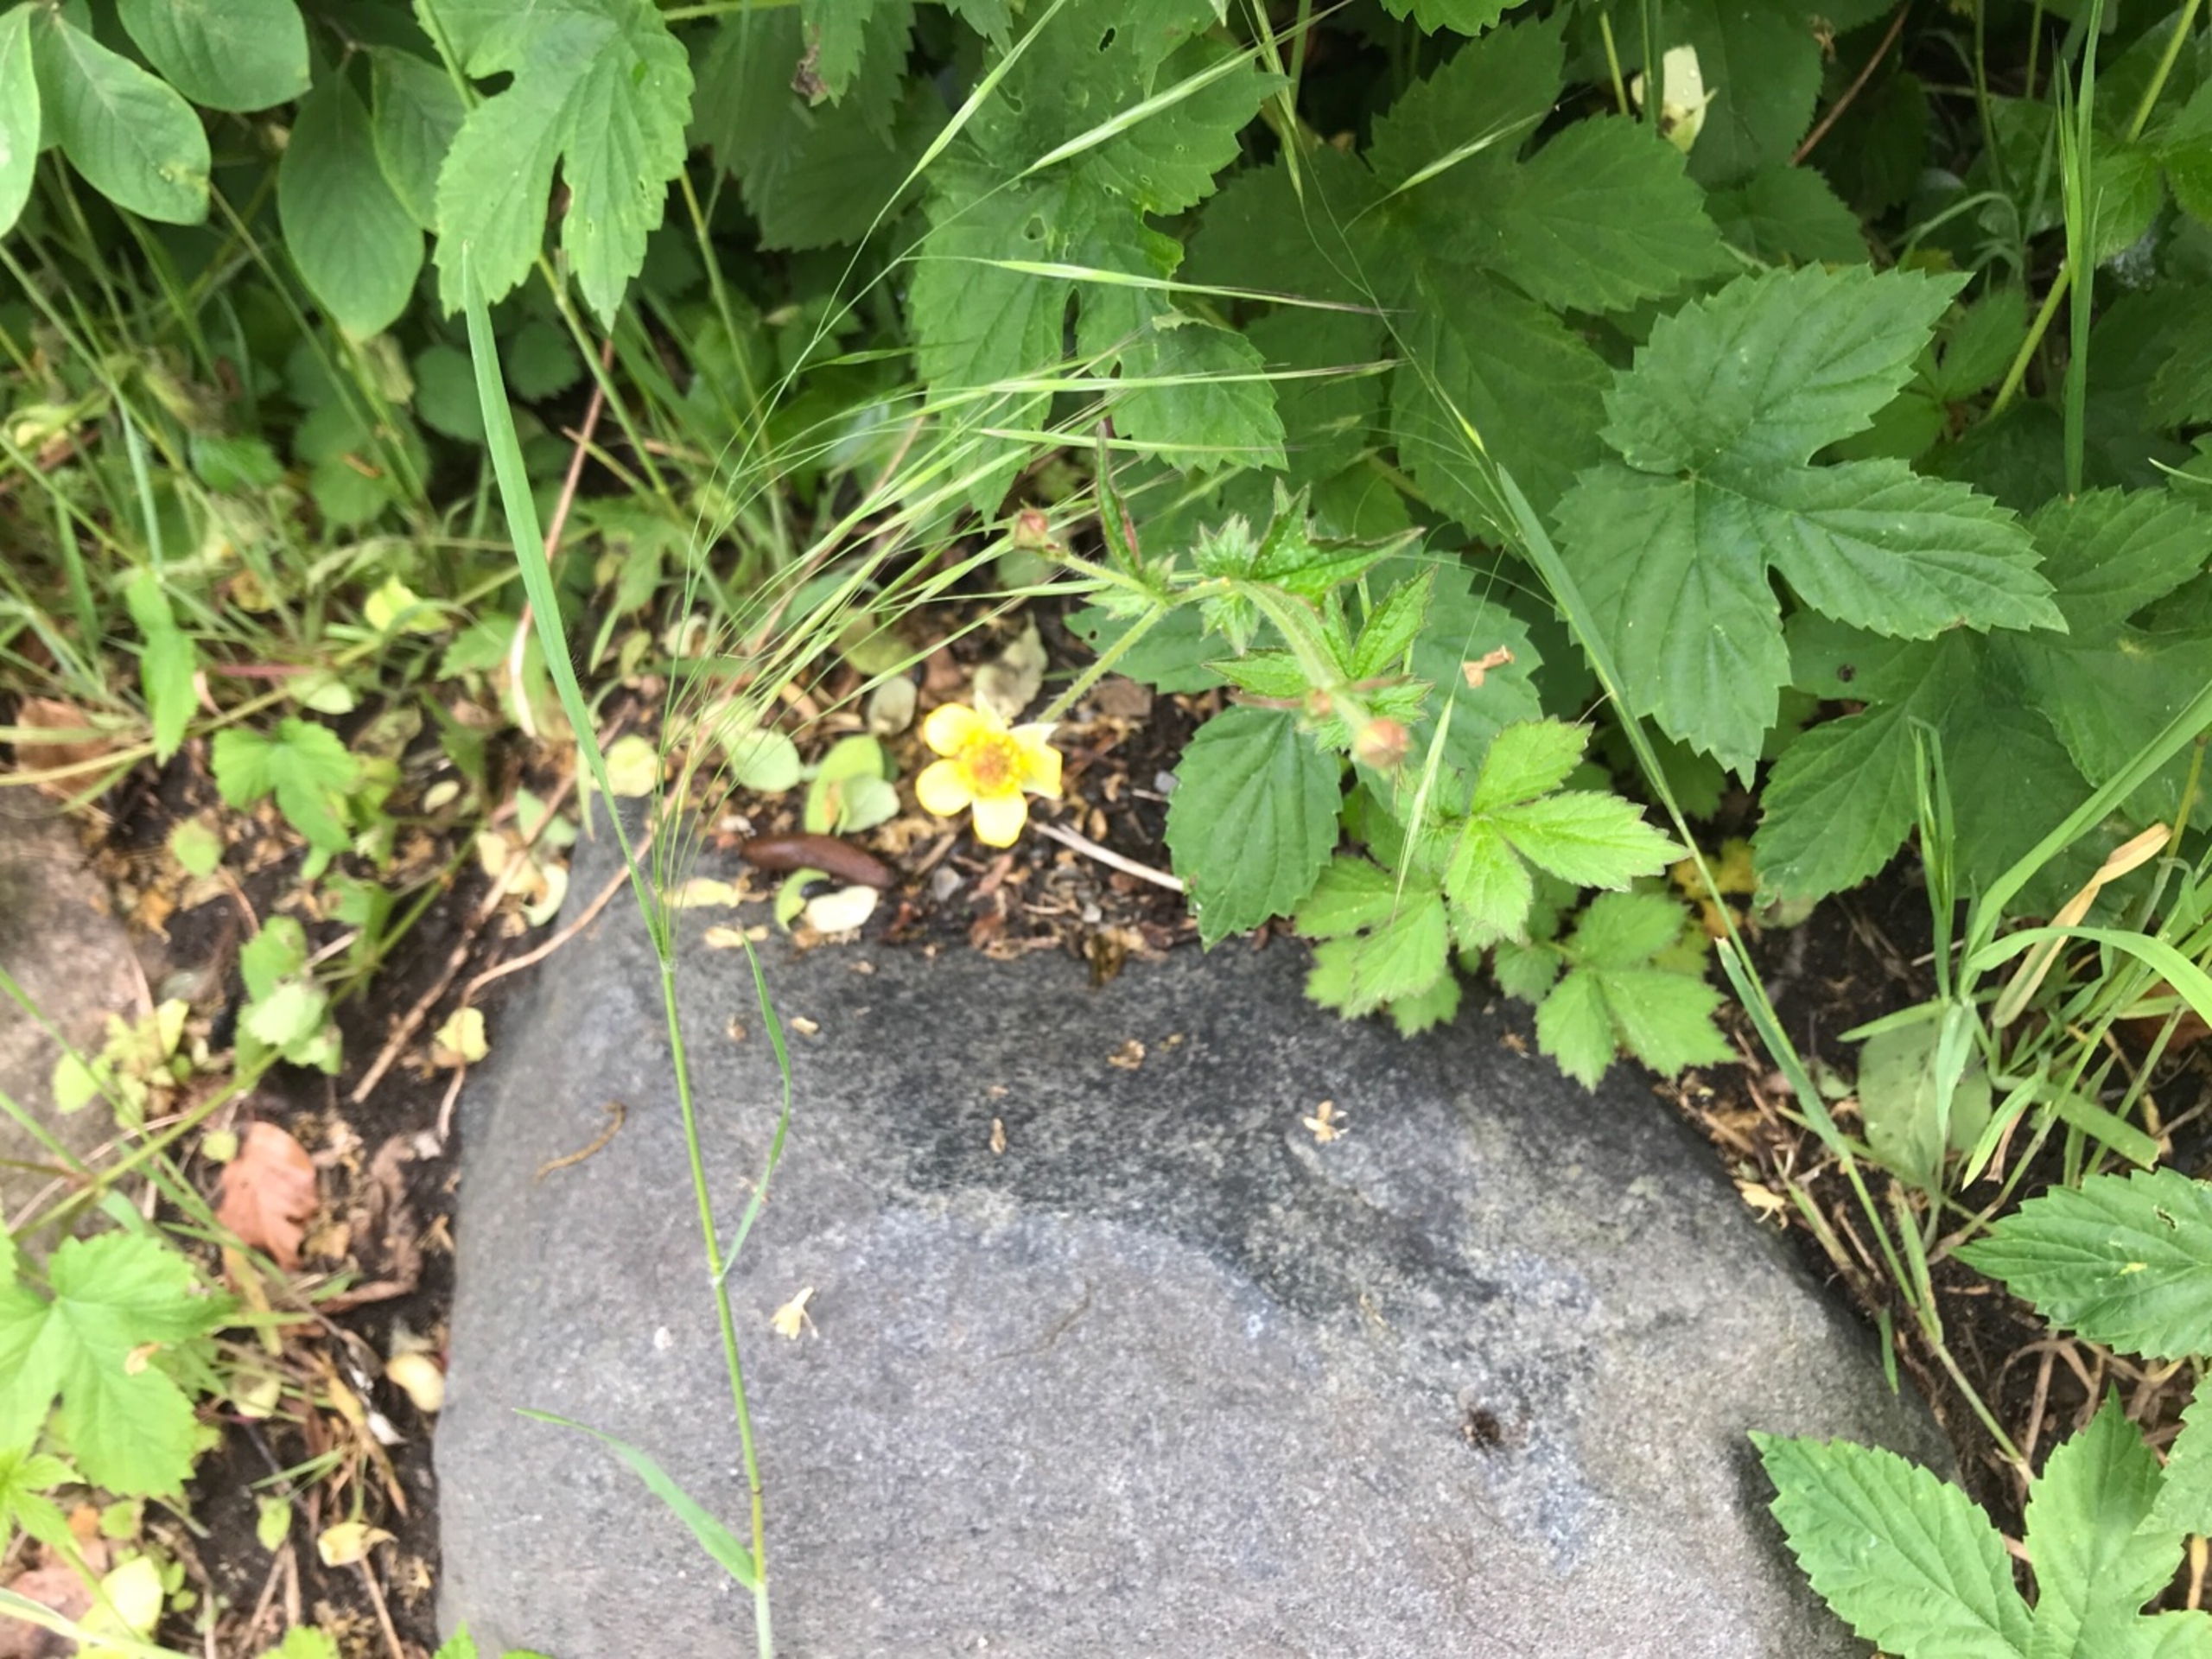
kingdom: Plantae
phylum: Tracheophyta
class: Magnoliopsida
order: Rosales
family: Rosaceae
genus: Geum
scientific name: Geum urbanum
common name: Feber-nellikerod
